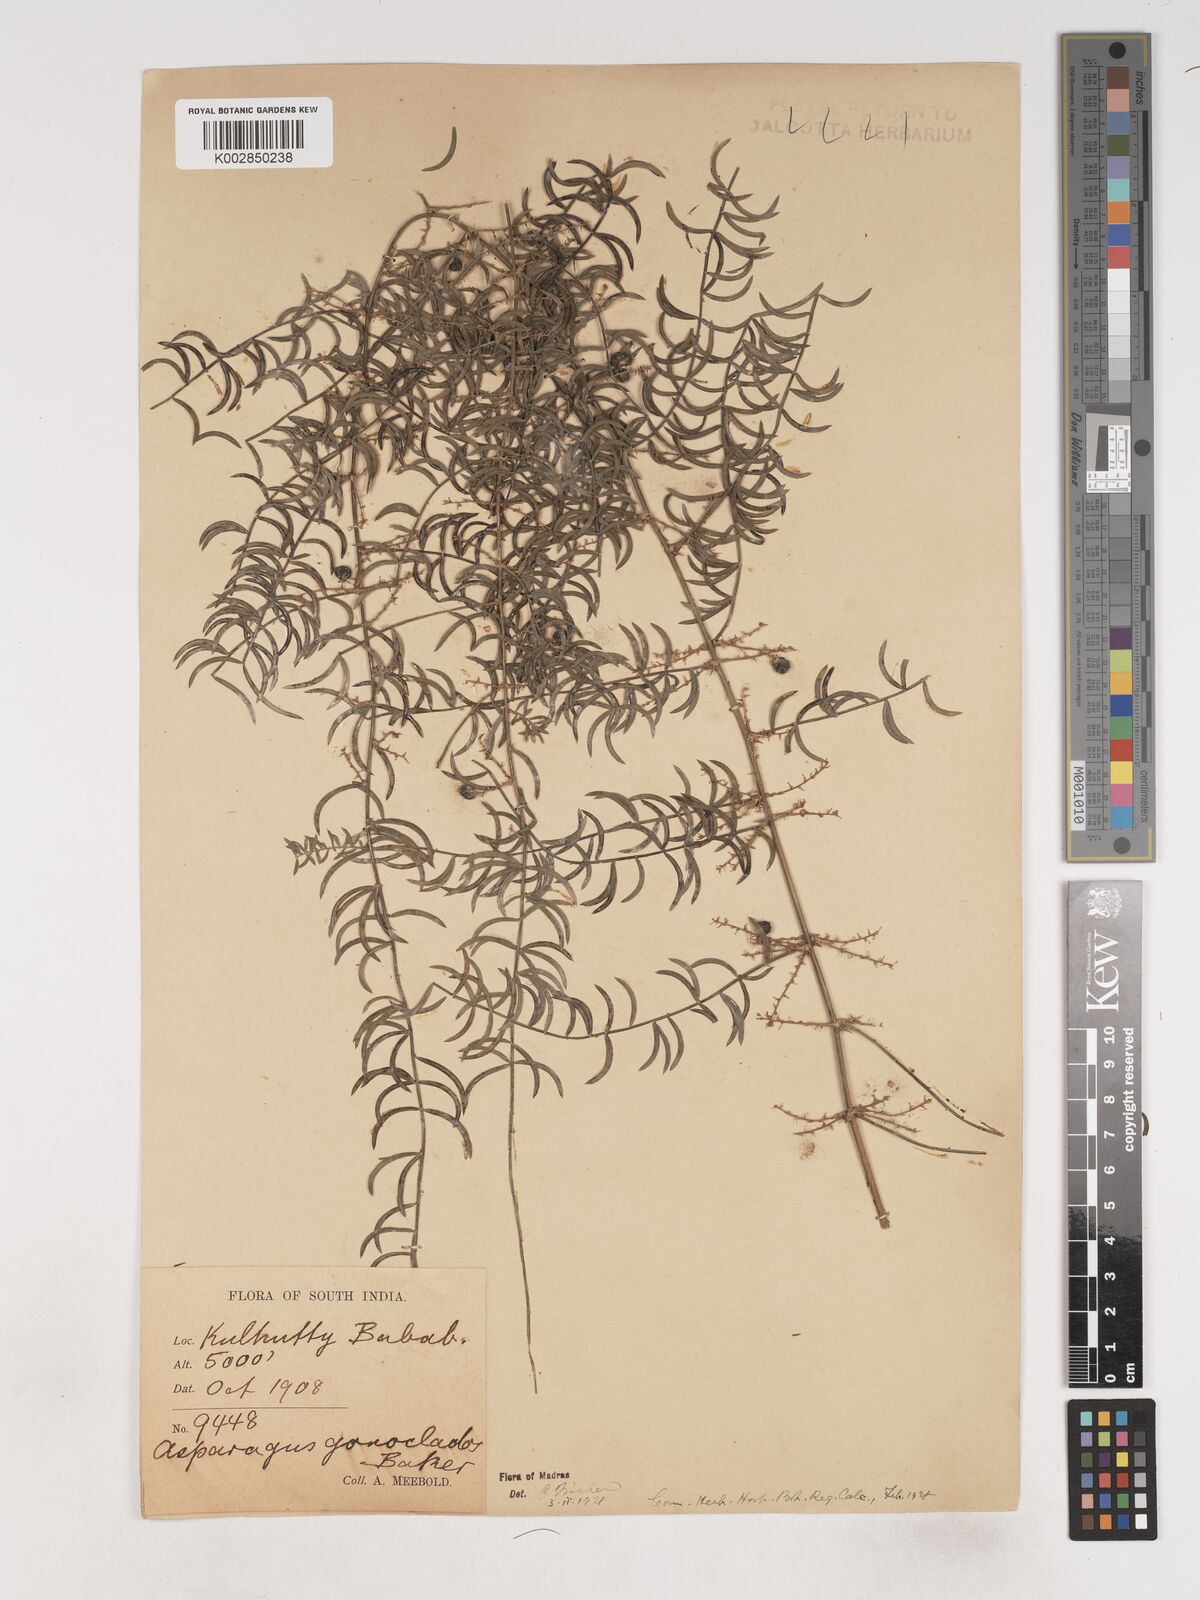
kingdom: Plantae
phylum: Tracheophyta
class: Liliopsida
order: Asparagales
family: Asparagaceae
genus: Asparagus
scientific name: Asparagus gonoclados
